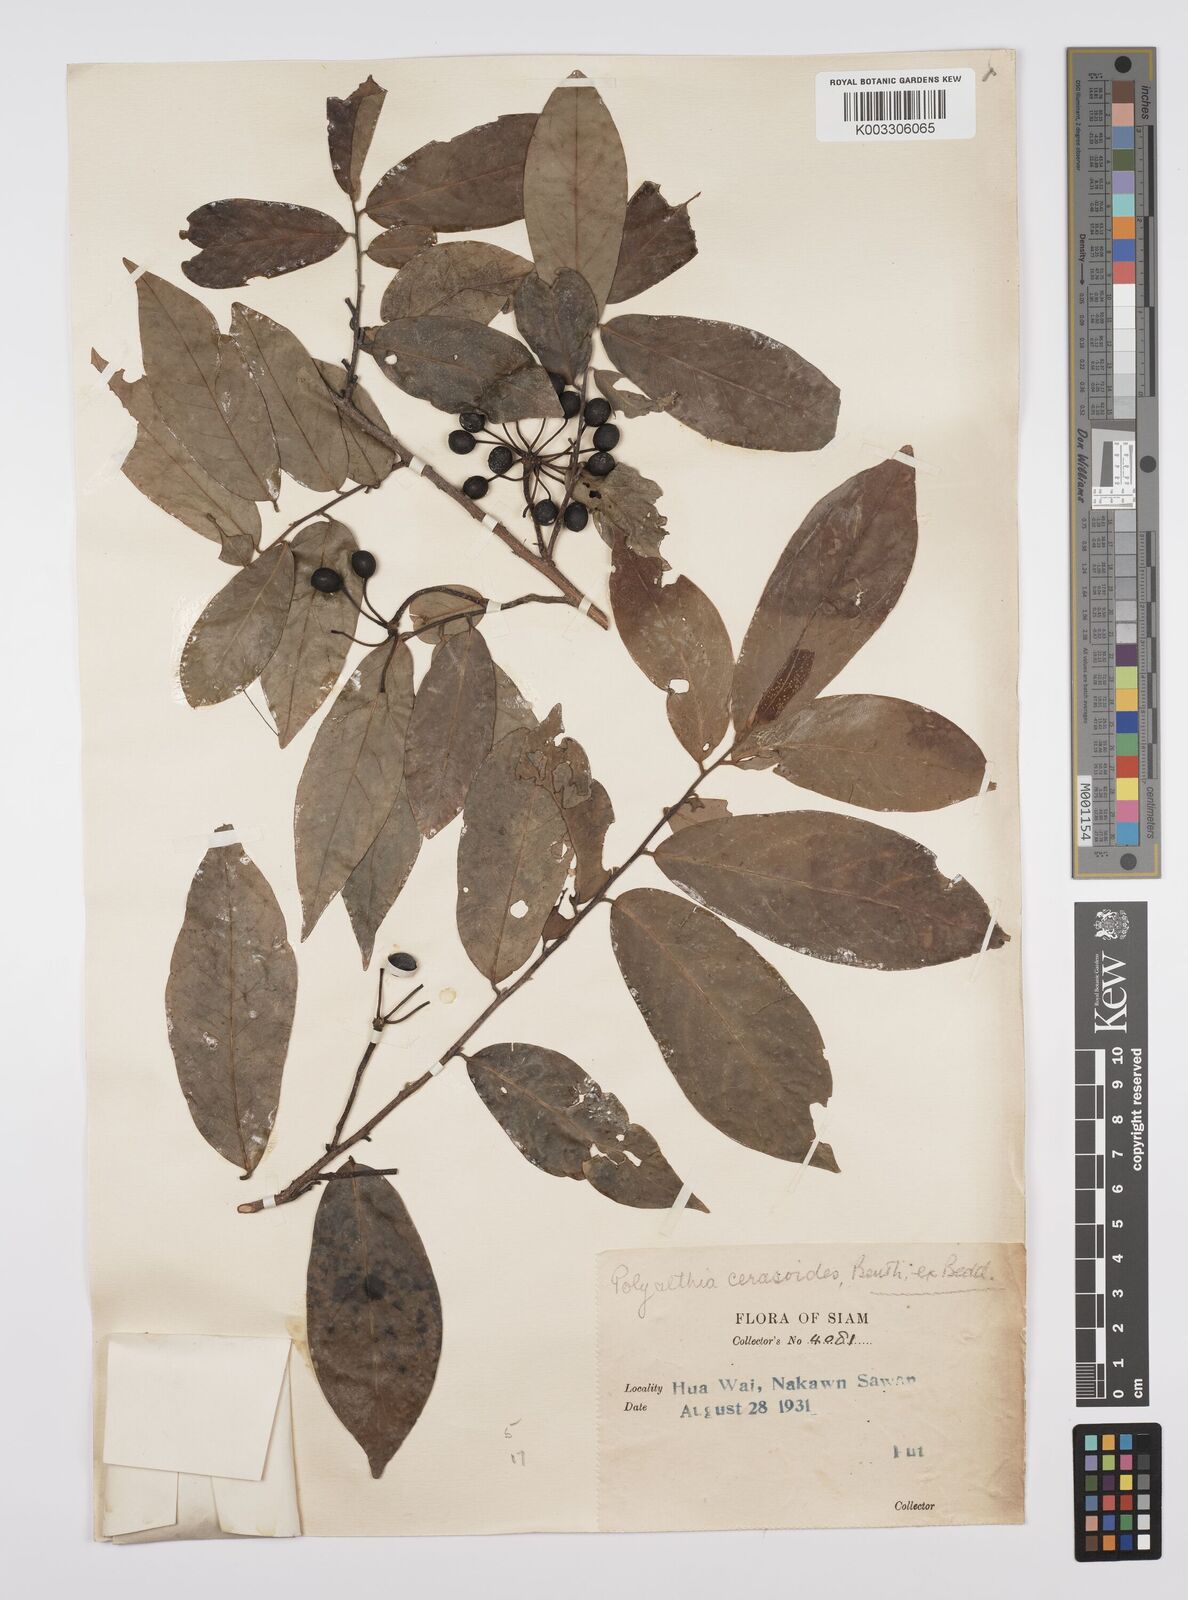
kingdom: Plantae
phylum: Tracheophyta
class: Magnoliopsida
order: Magnoliales
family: Annonaceae
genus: Hubera
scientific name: Hubera cerasoides
